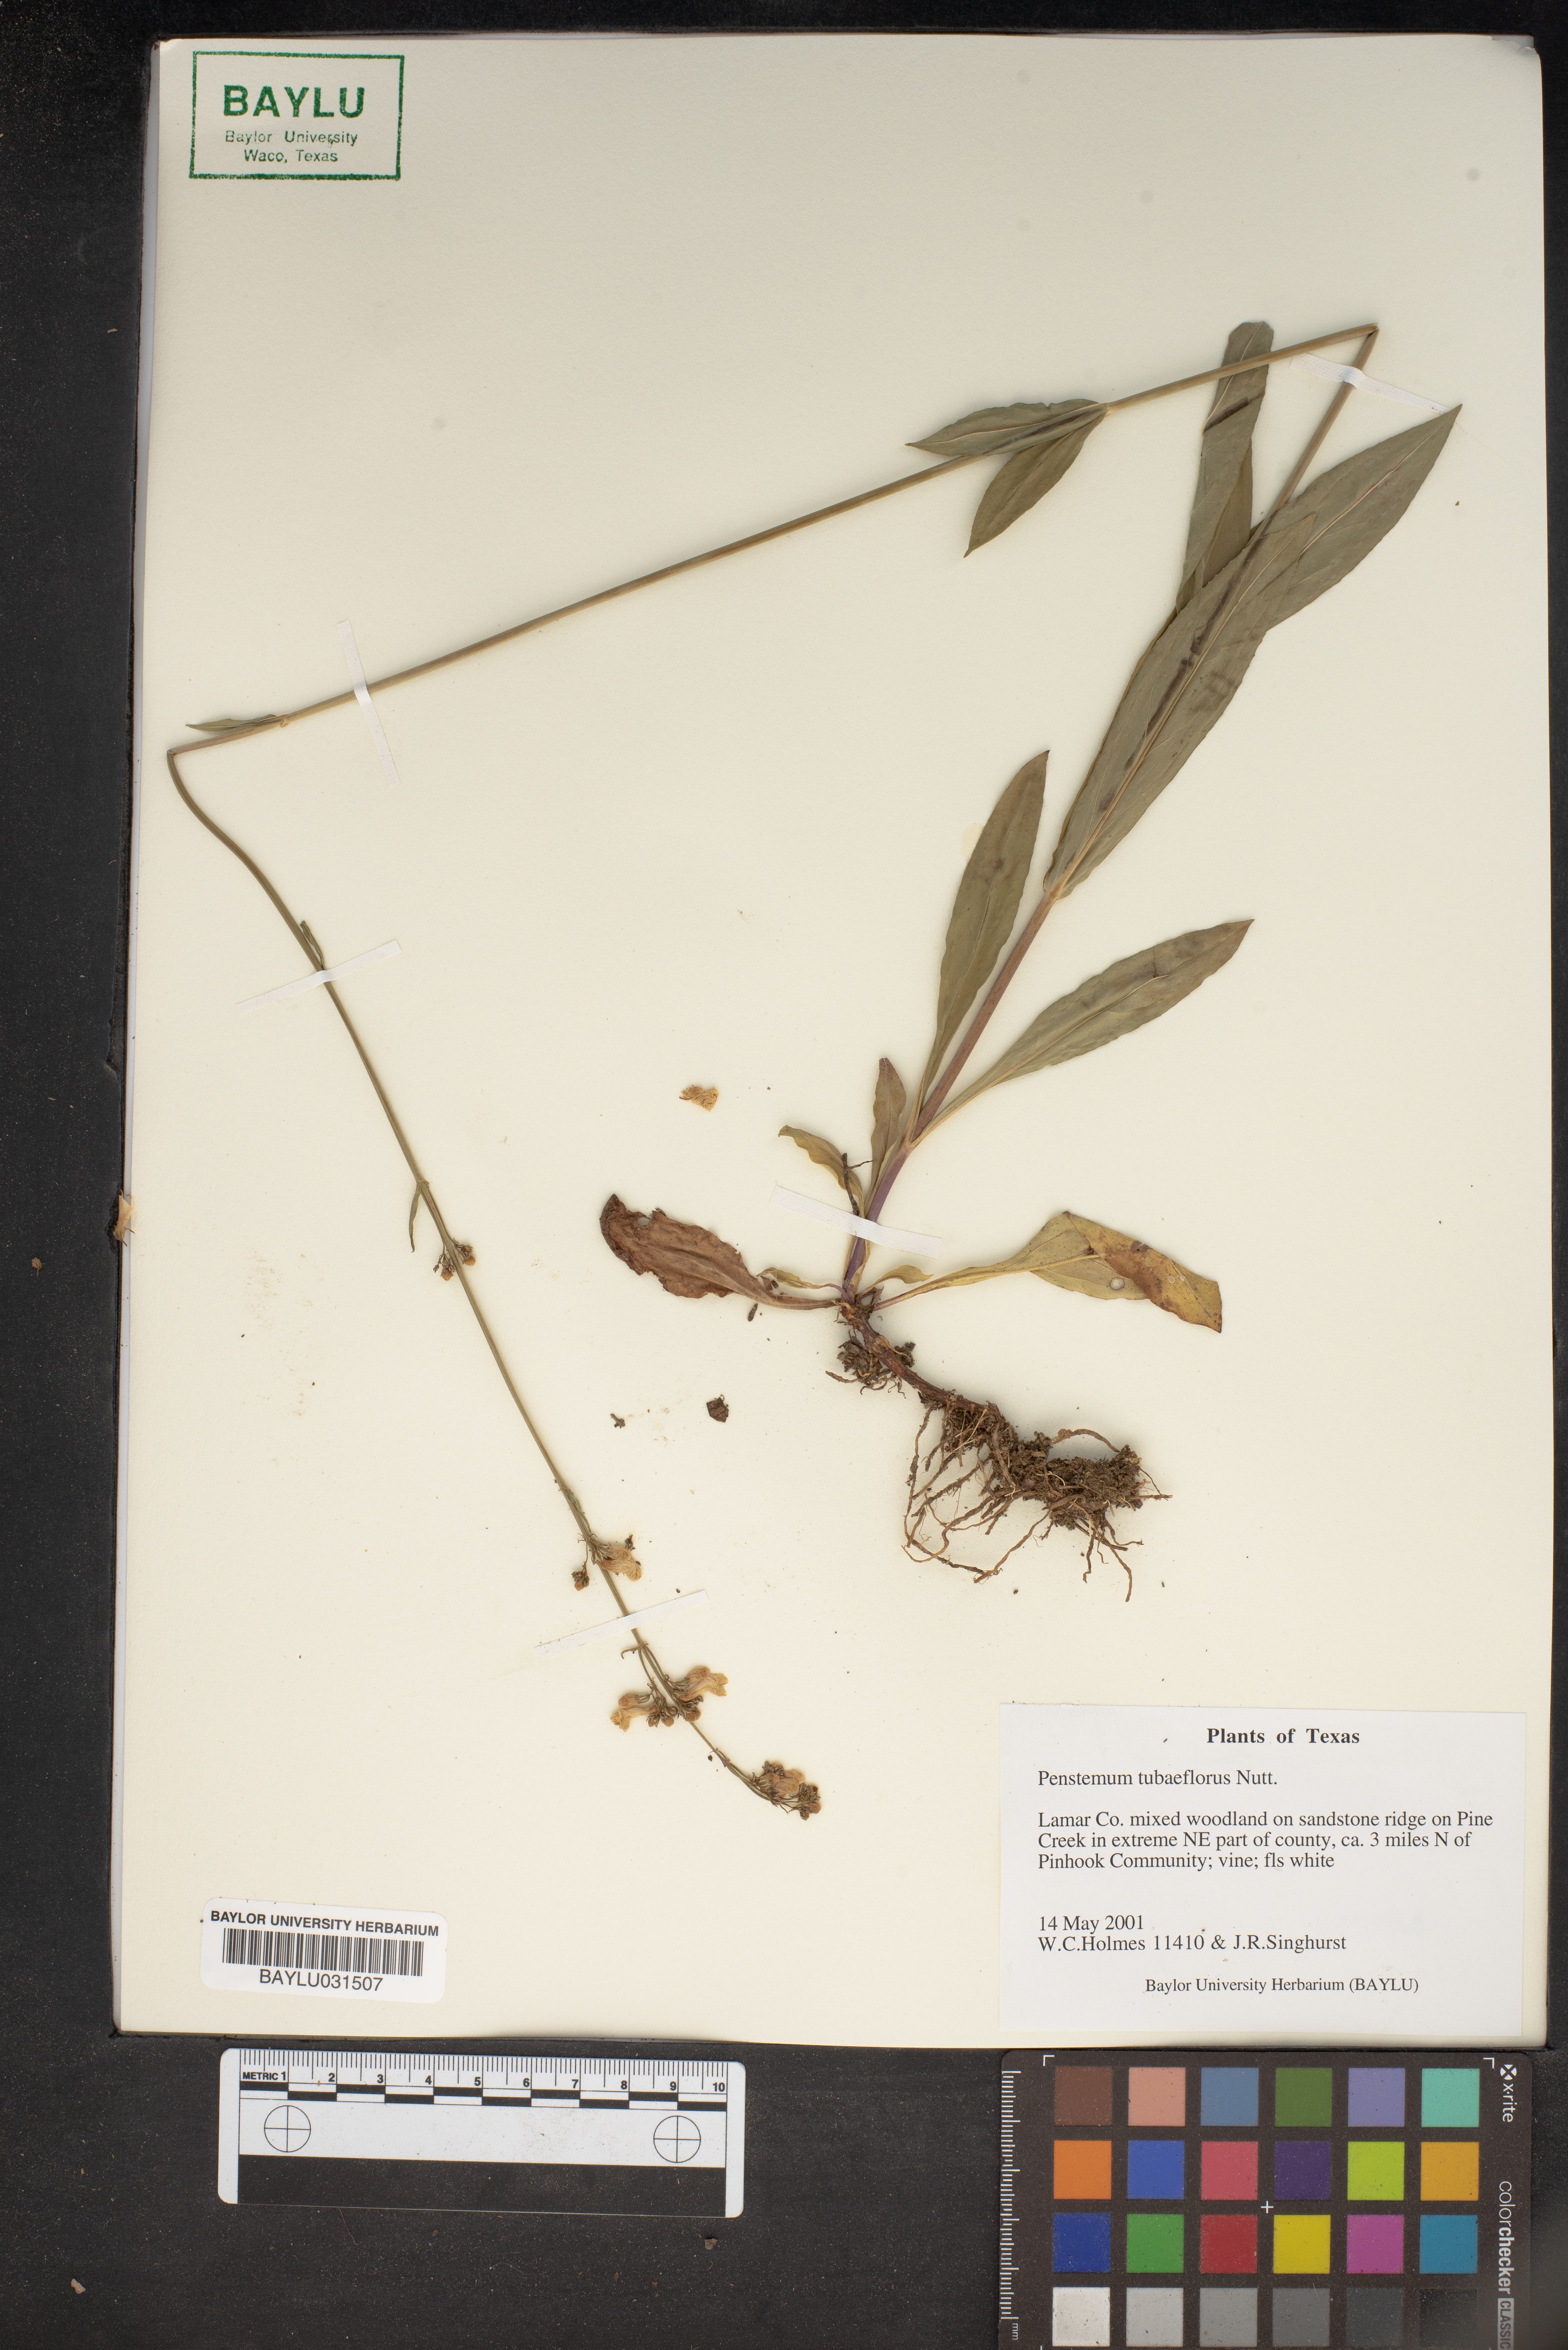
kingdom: Plantae
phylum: Tracheophyta
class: Magnoliopsida
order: Lamiales
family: Plantaginaceae
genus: Penstemon
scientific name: Penstemon tubaeflorus
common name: White wand beardtongue
